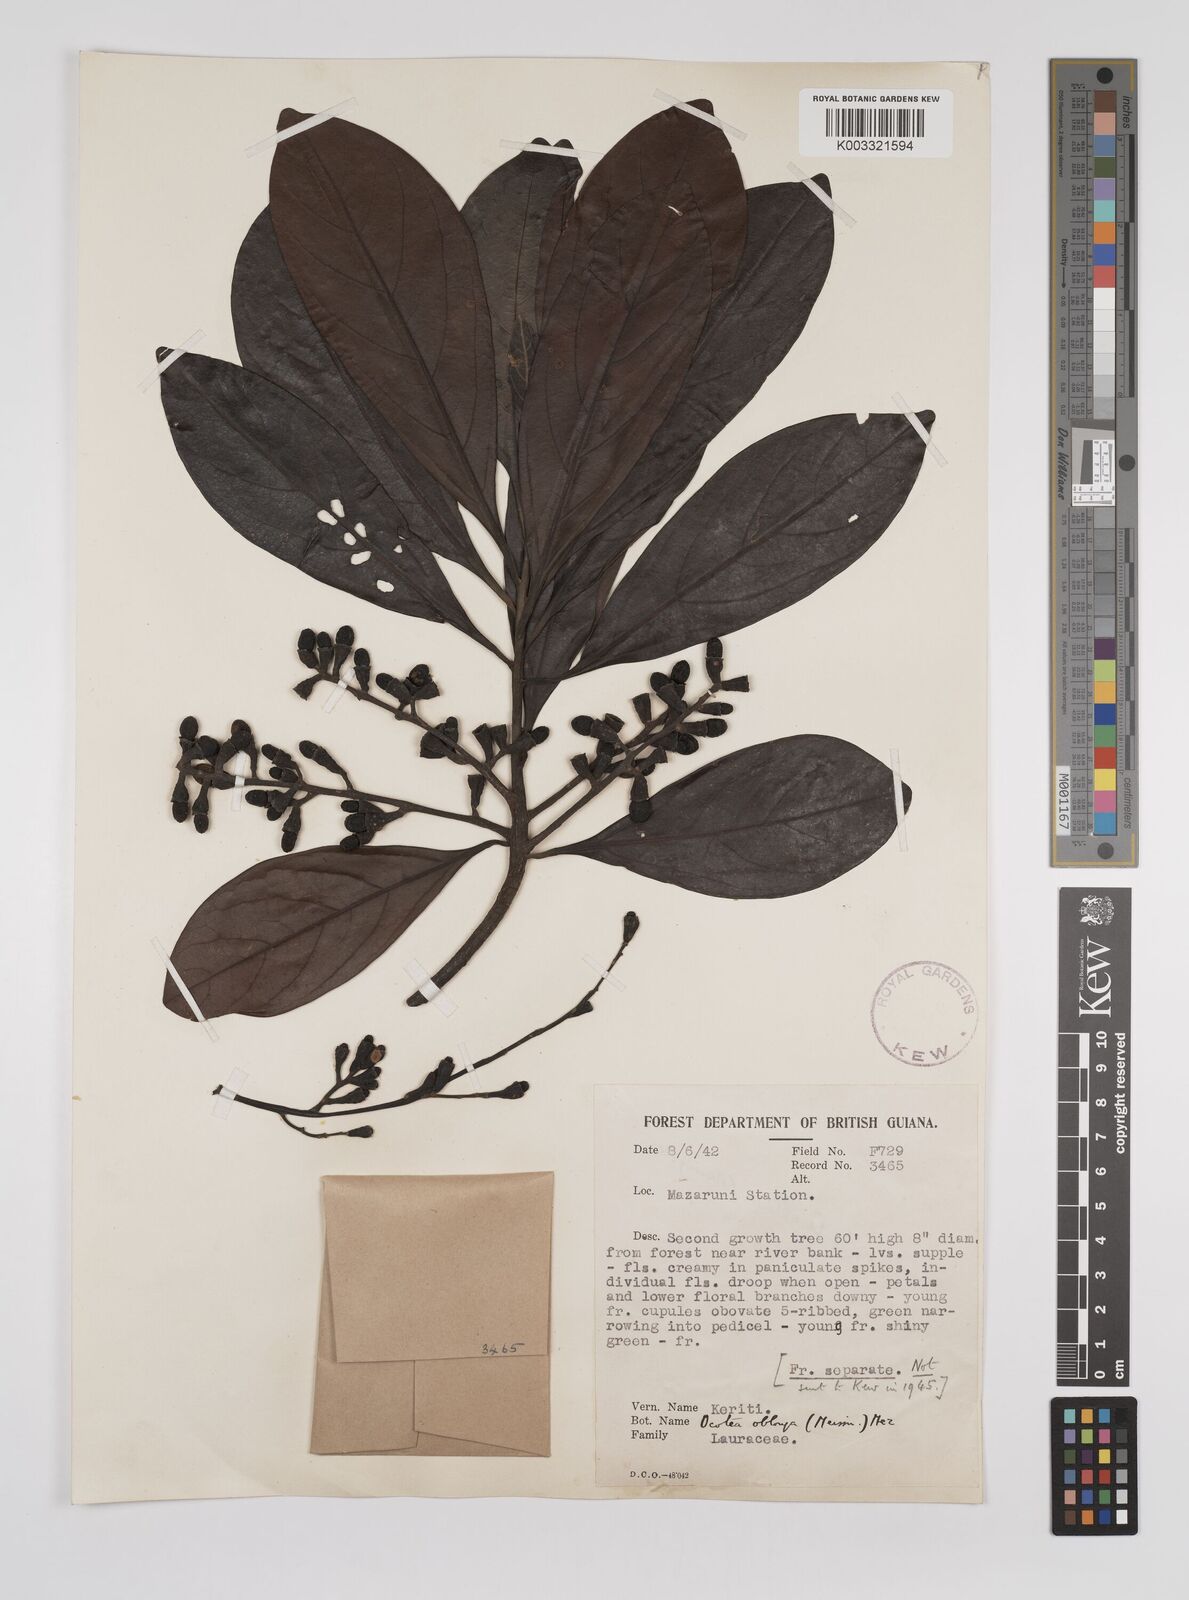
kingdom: Plantae
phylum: Tracheophyta
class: Magnoliopsida
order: Laurales
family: Lauraceae
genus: Ocotea
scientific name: Ocotea oblonga
